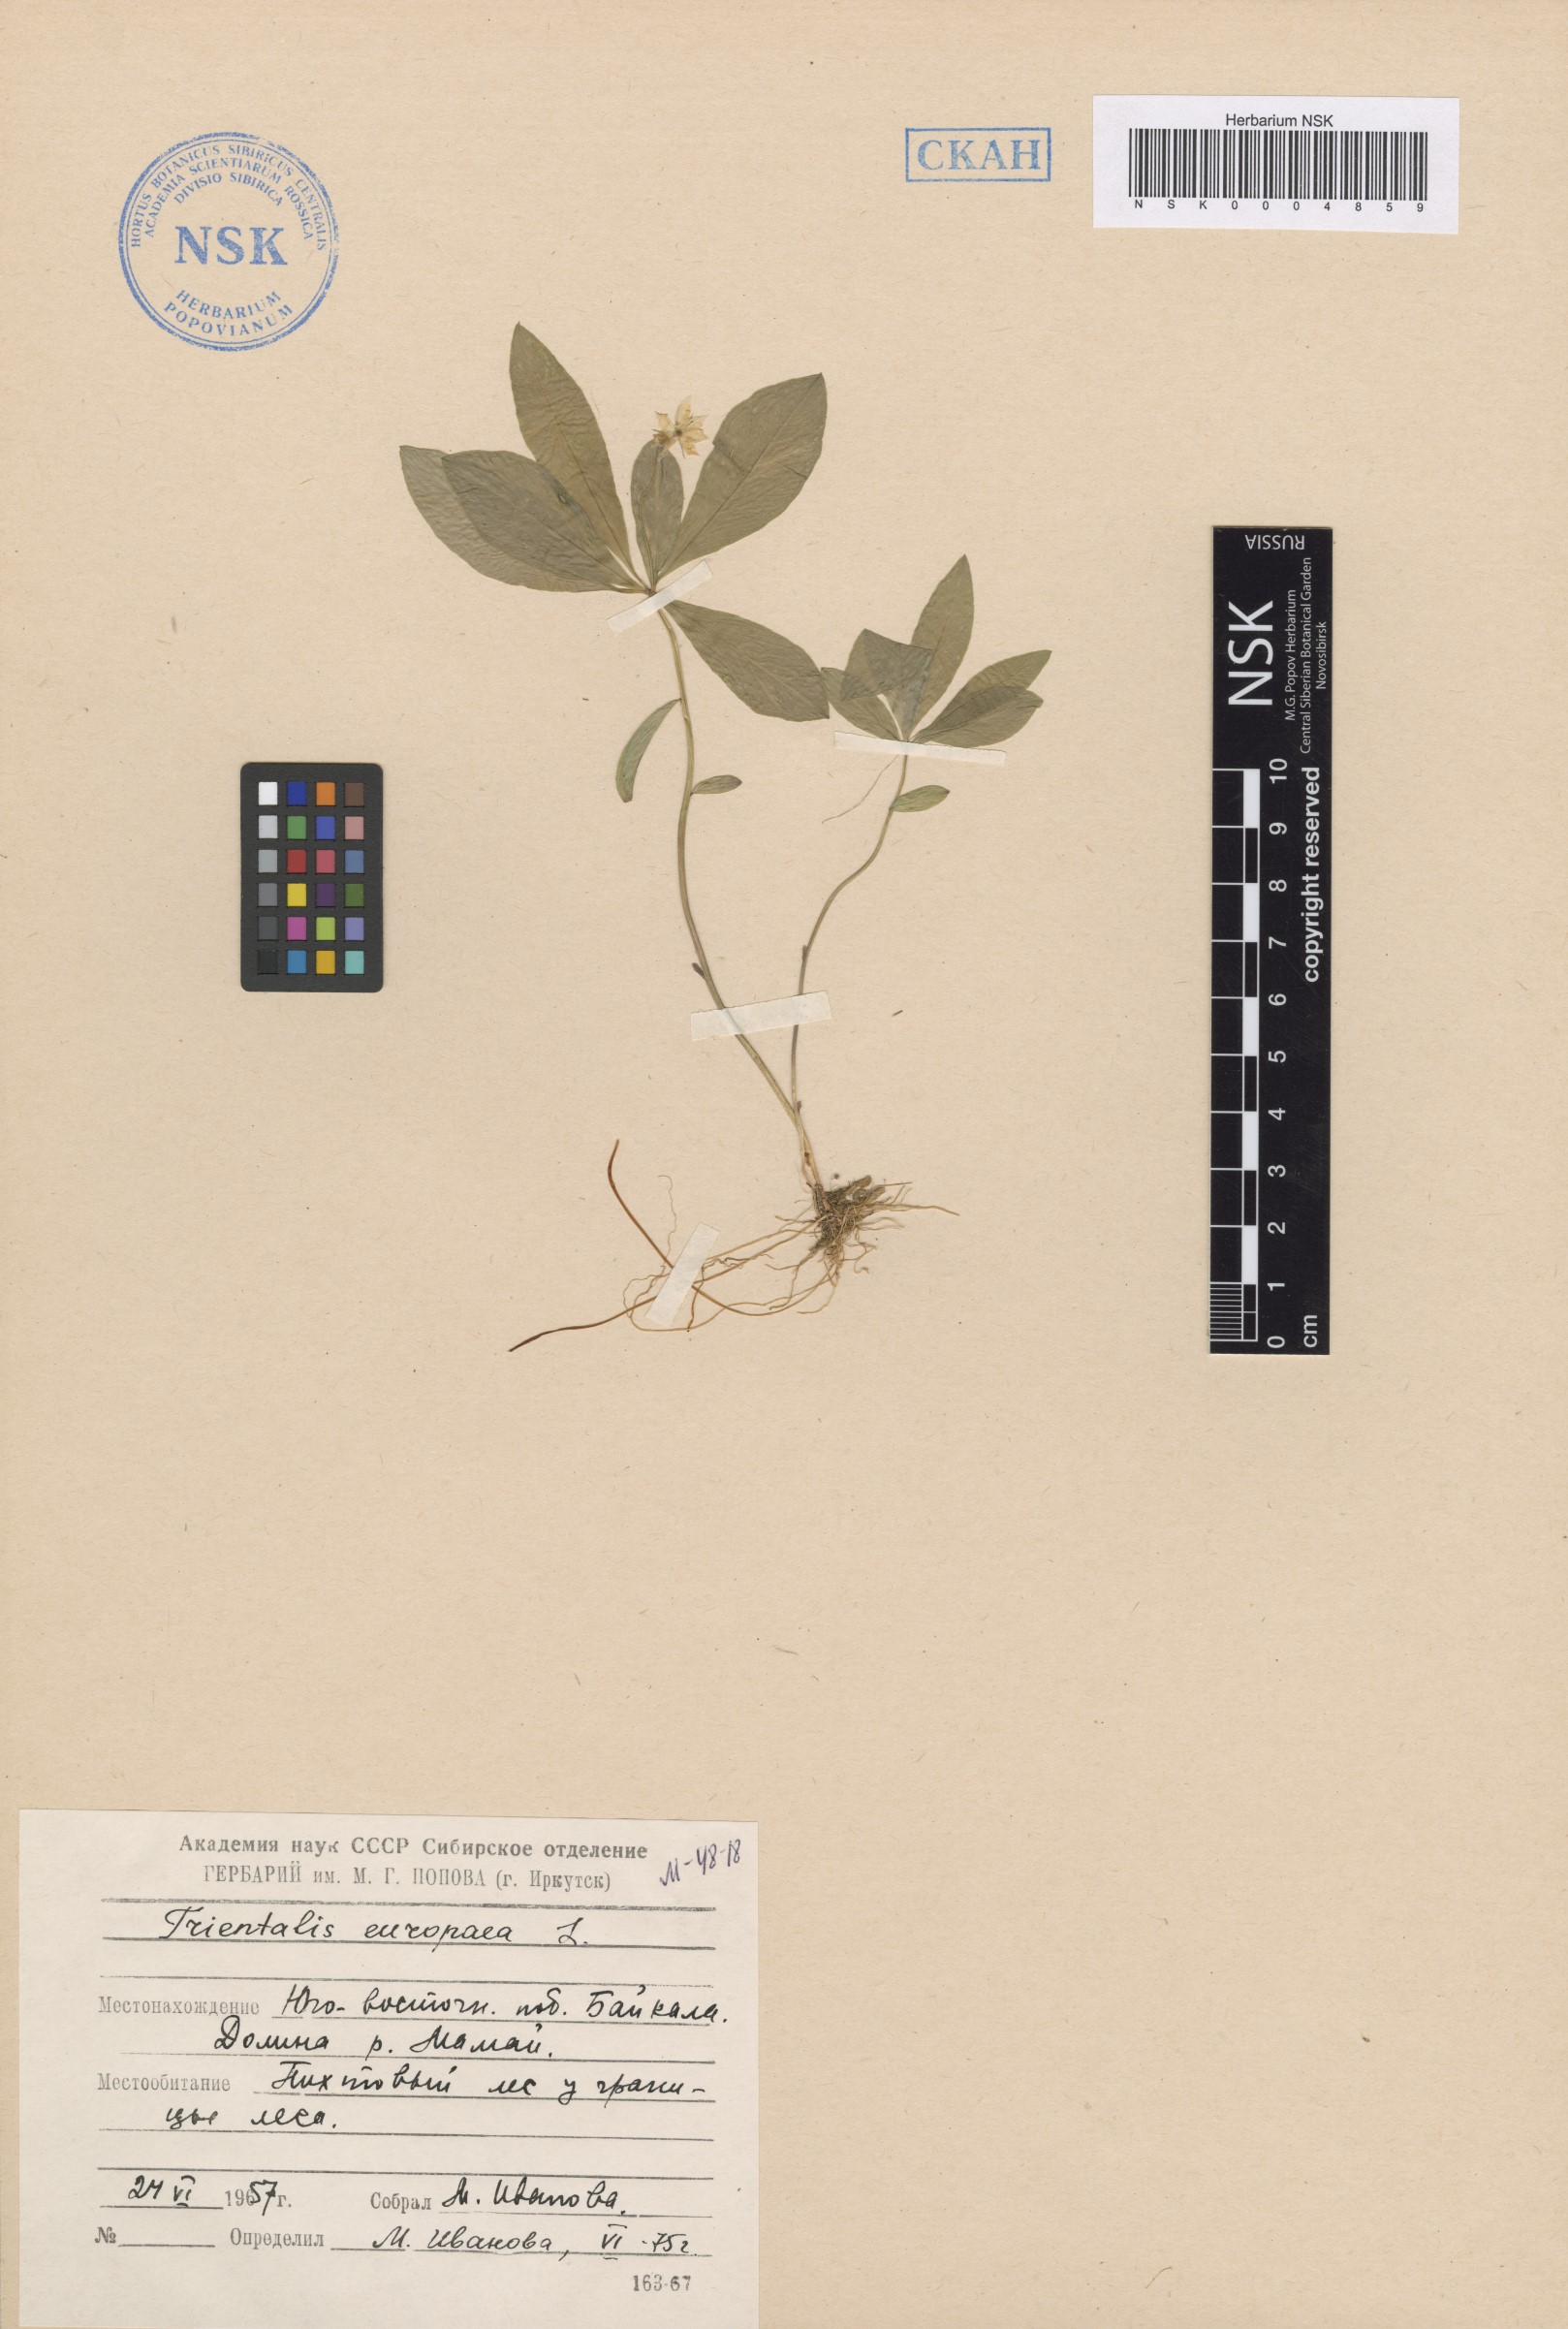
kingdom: Plantae
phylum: Tracheophyta
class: Magnoliopsida
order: Ericales
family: Primulaceae
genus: Lysimachia
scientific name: Lysimachia europaea
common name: Arctic starflower
